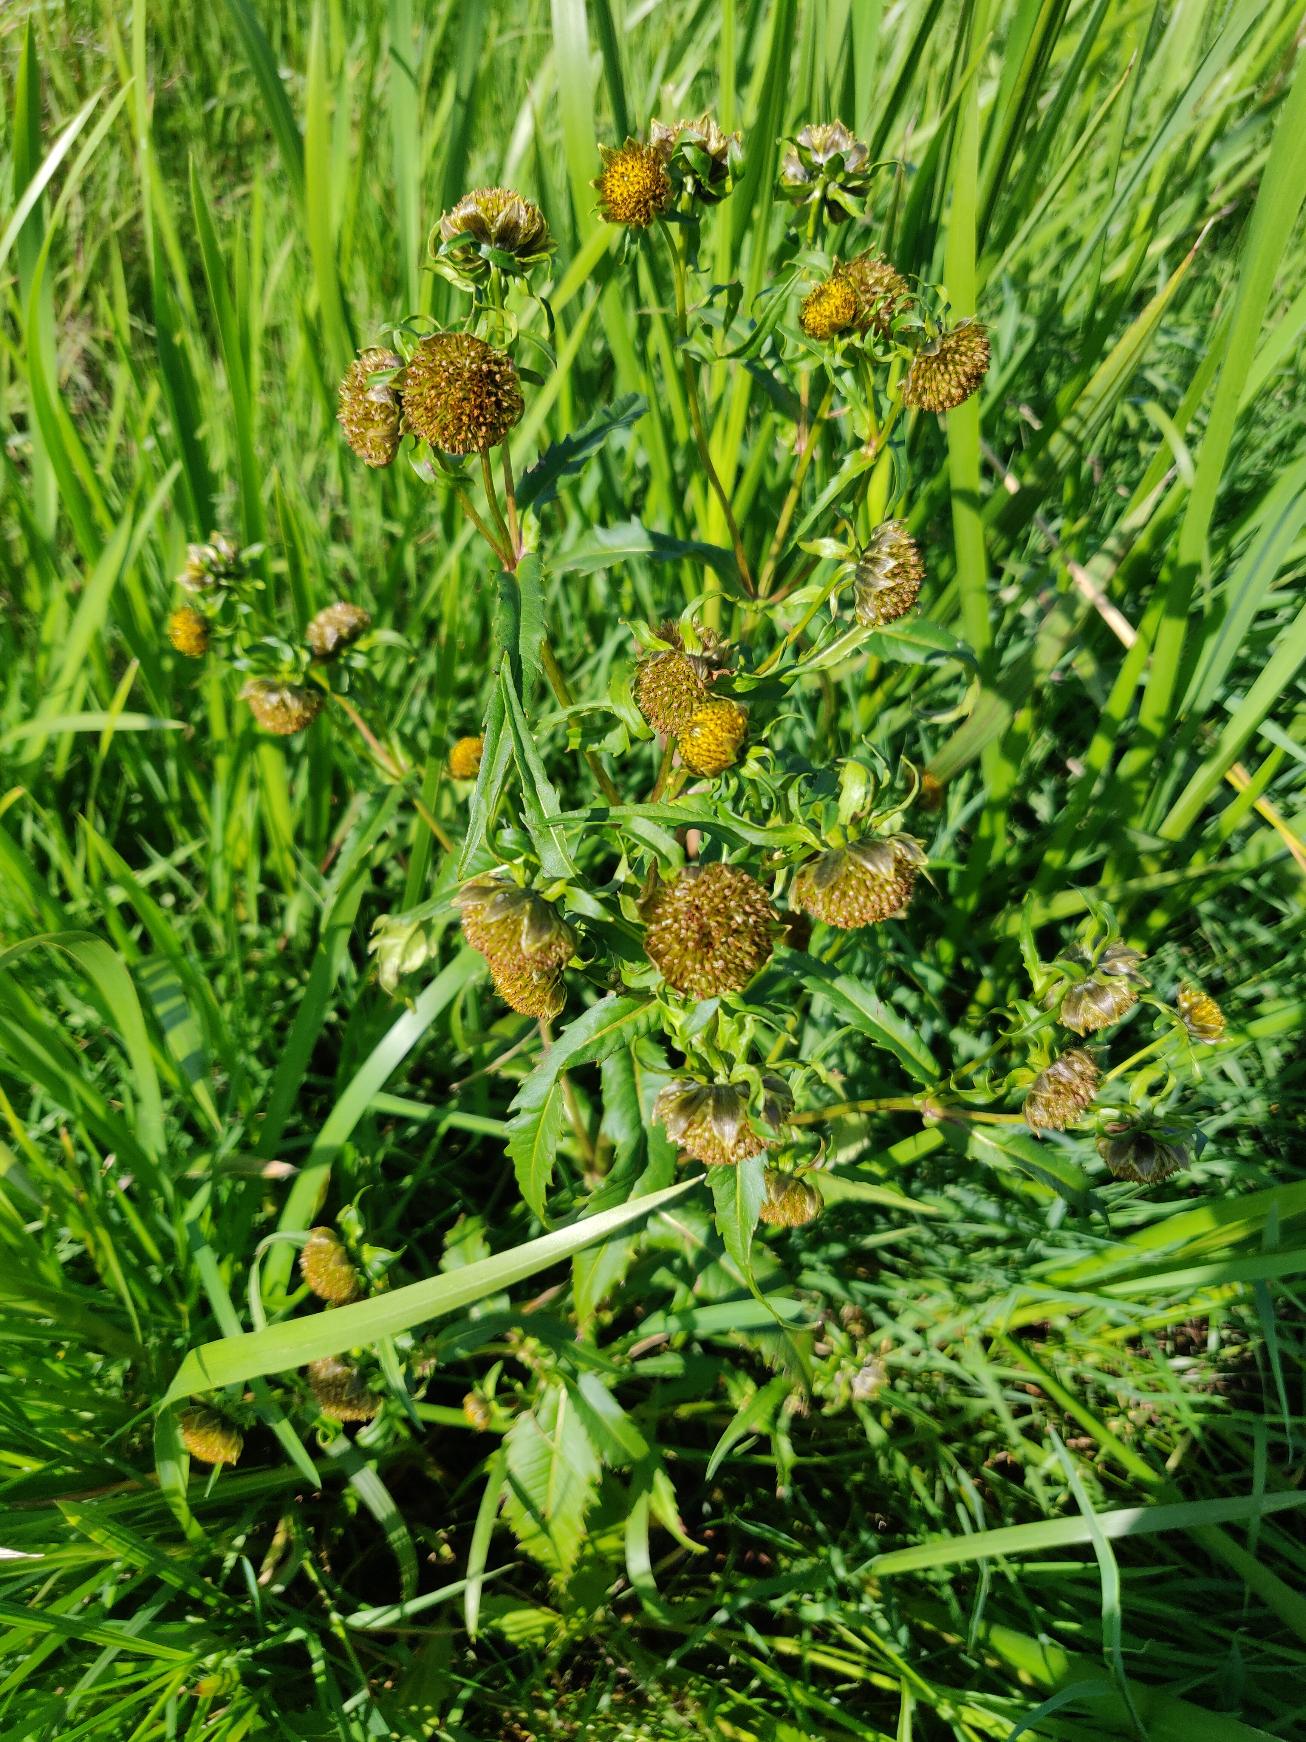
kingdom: Plantae
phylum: Tracheophyta
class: Magnoliopsida
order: Asterales
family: Asteraceae
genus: Bidens
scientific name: Bidens cernua
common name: Nikkende brøndsel
